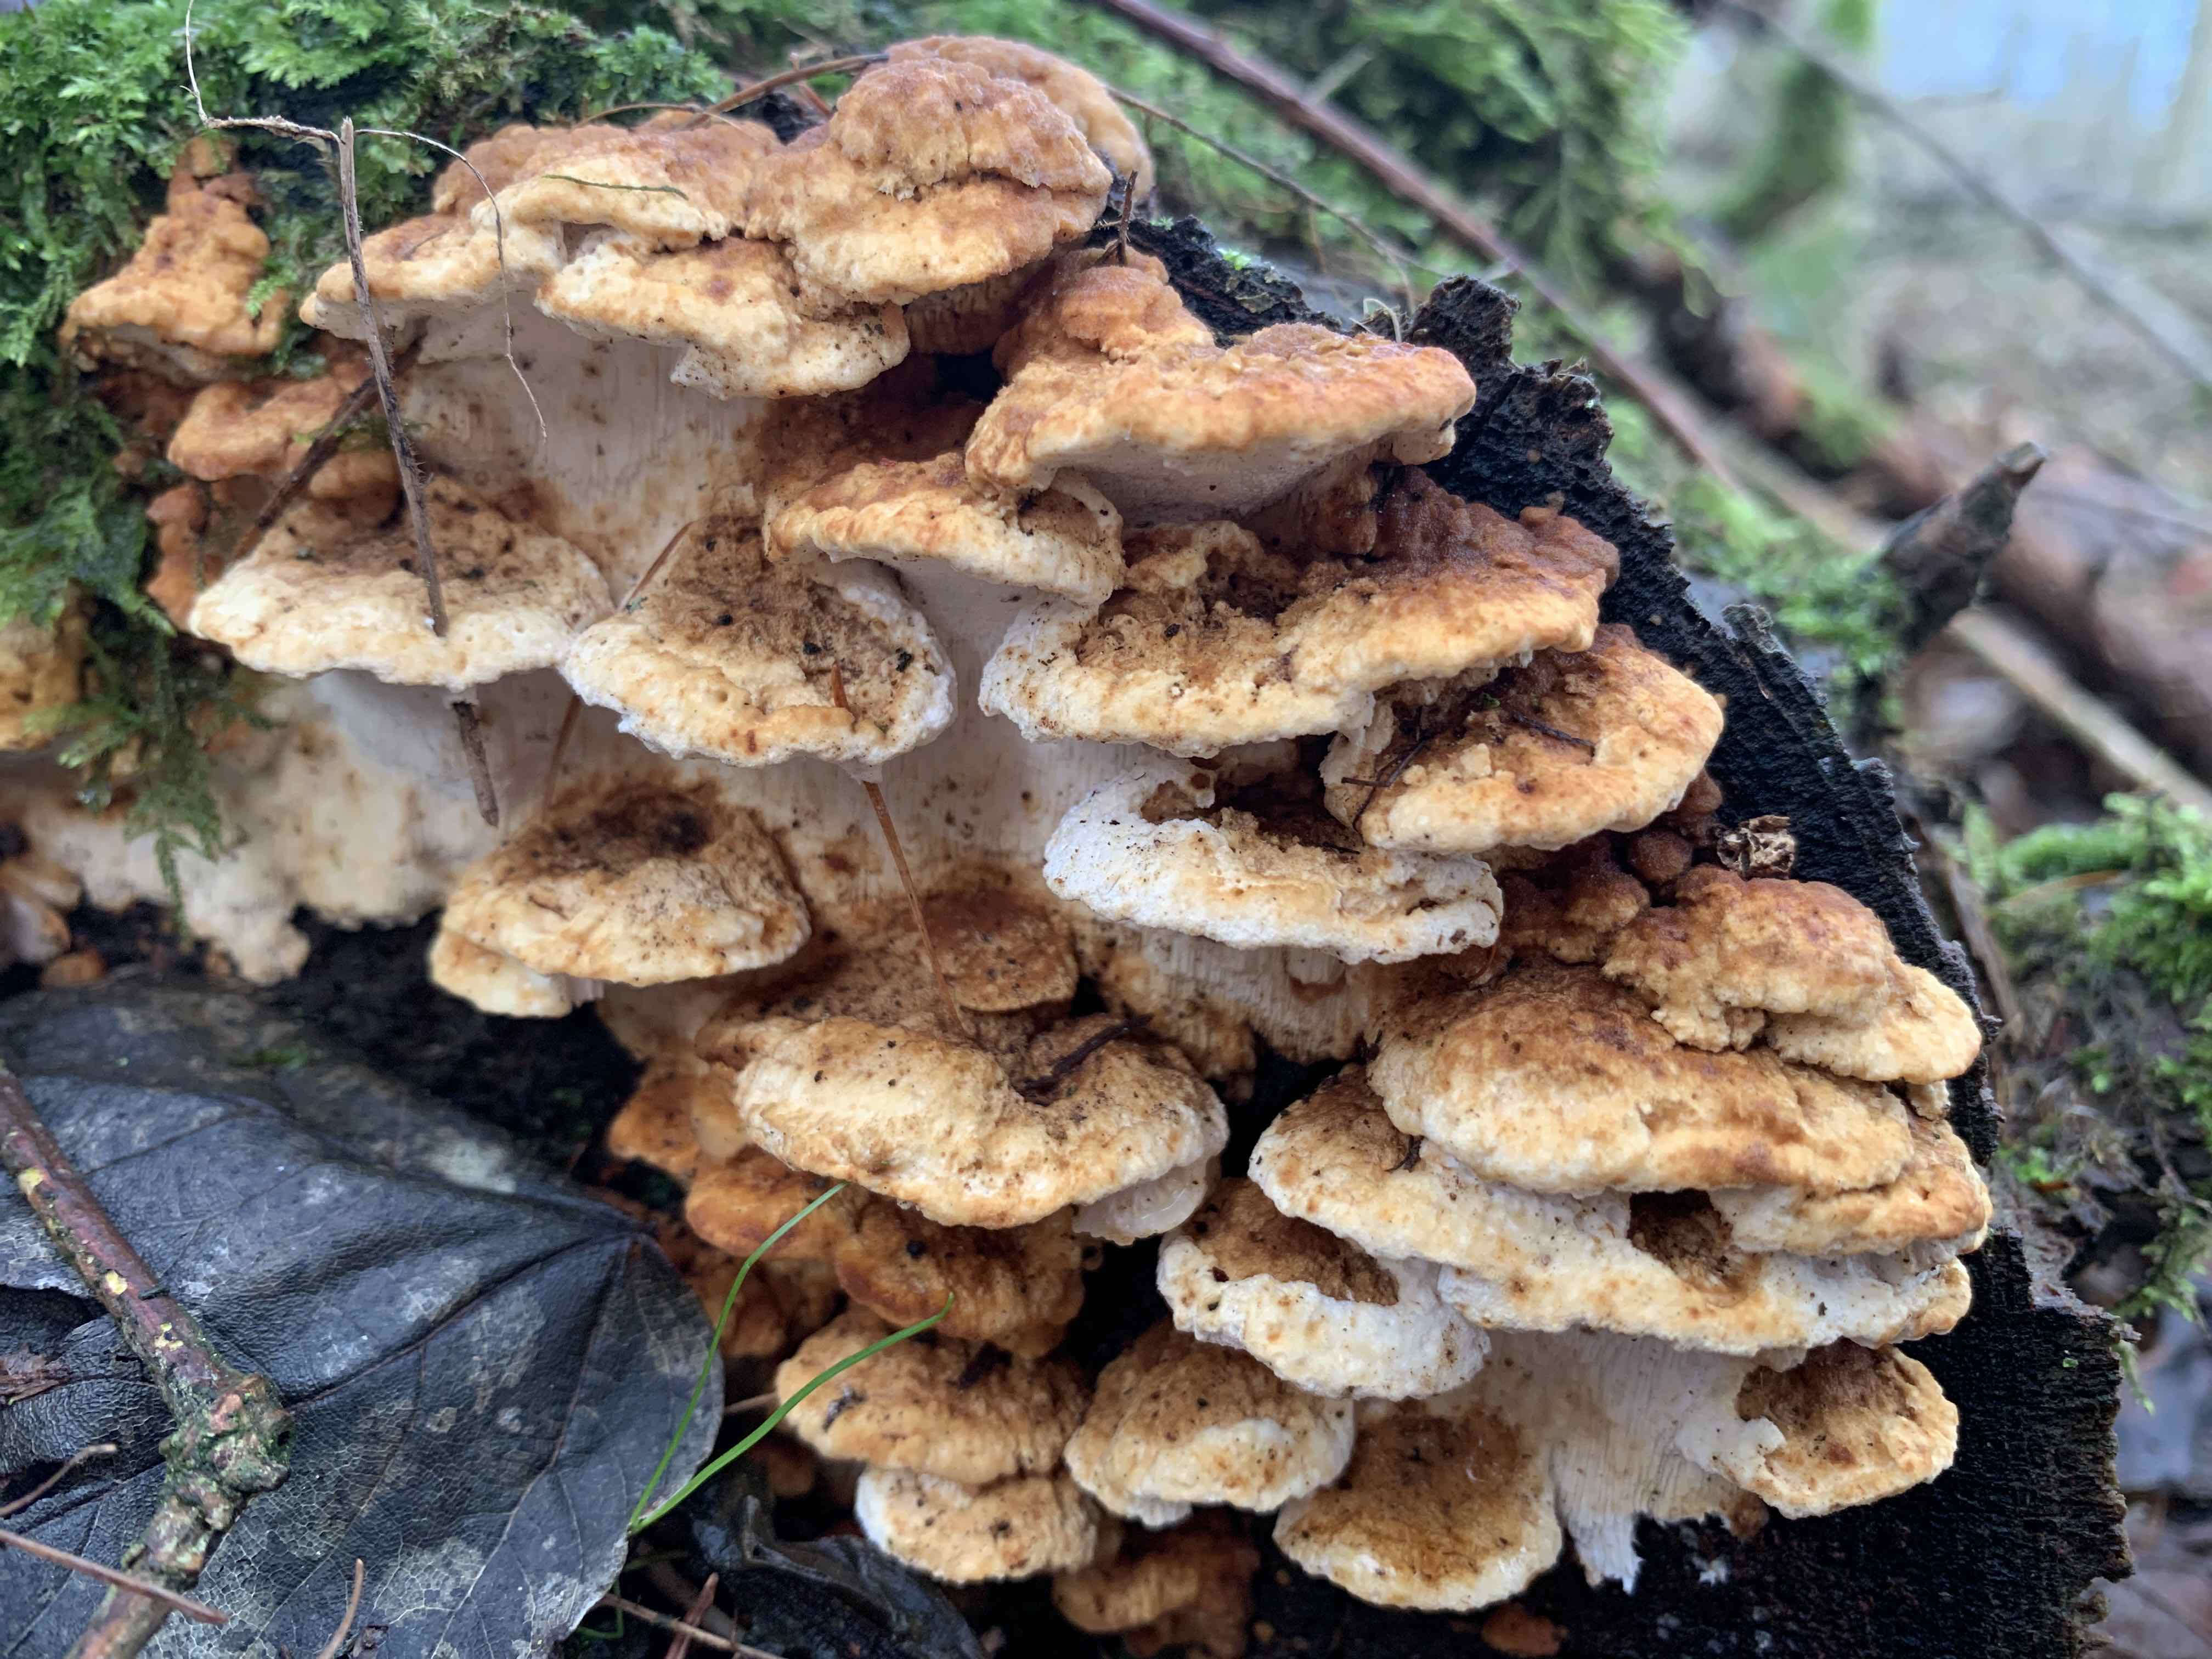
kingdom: Fungi
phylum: Basidiomycota
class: Agaricomycetes
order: Polyporales
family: Fomitopsidaceae
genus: Neoantrodia
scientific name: Neoantrodia serialis
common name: række-sejporesvamp
